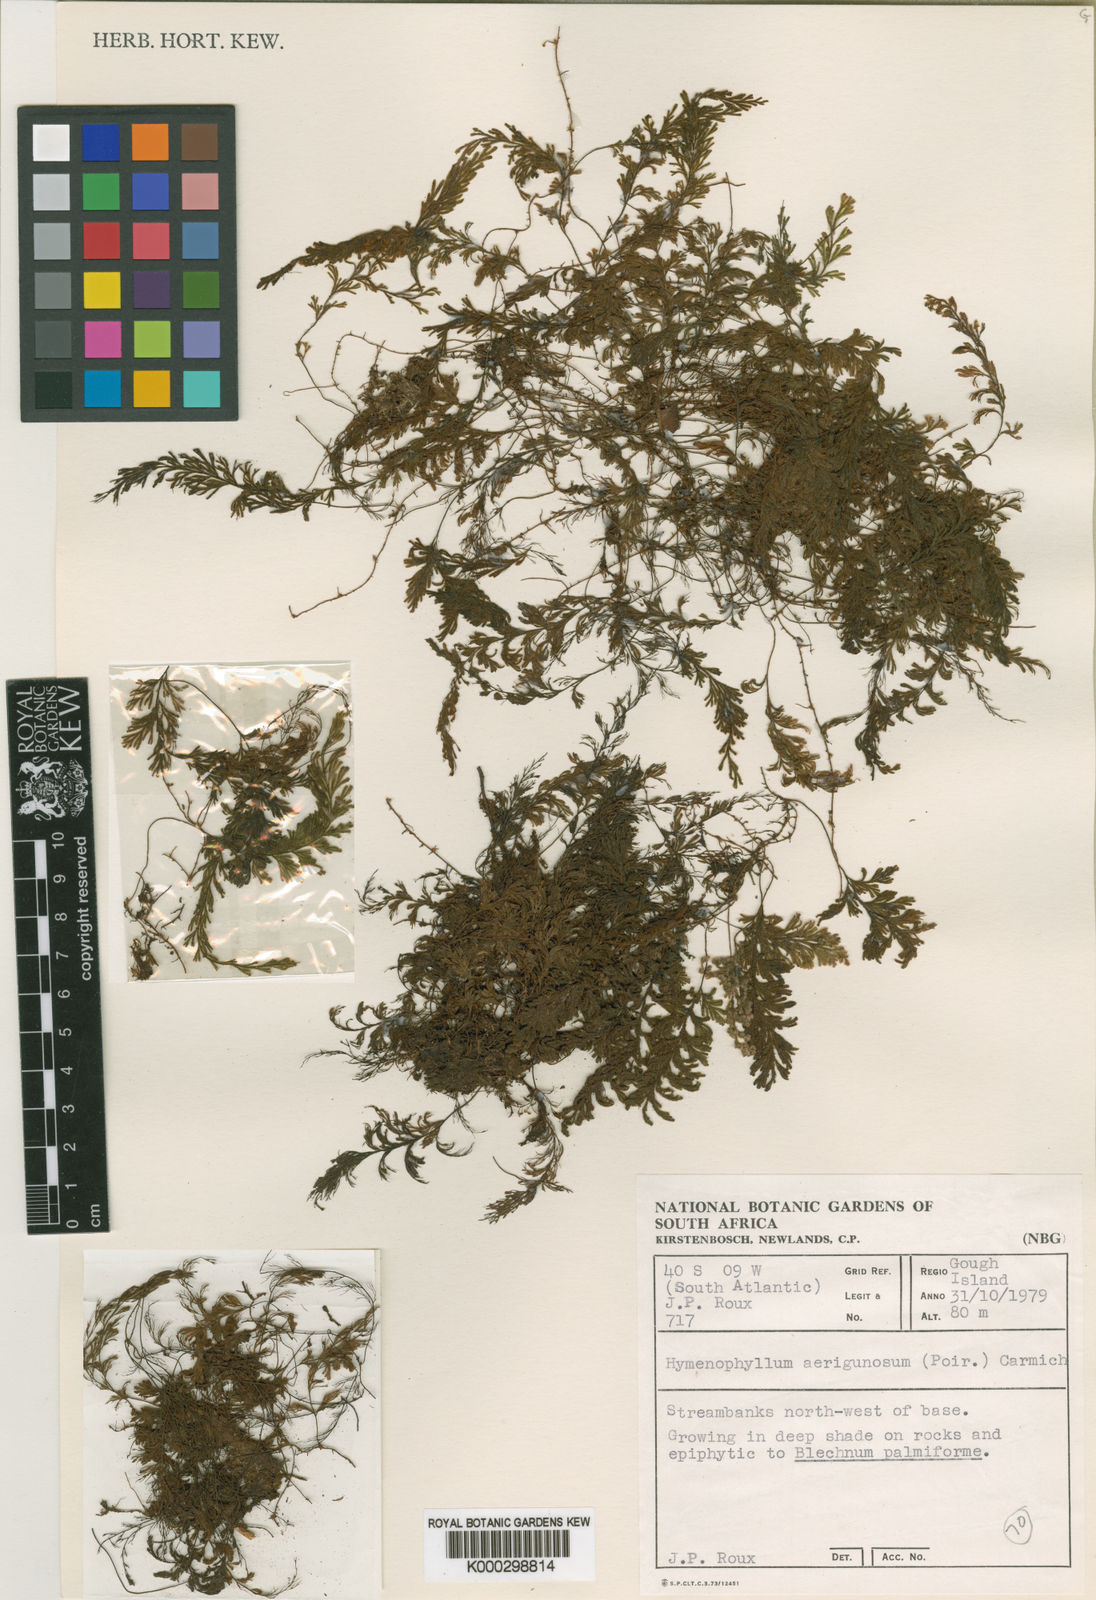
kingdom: Plantae
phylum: Tracheophyta
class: Polypodiopsida
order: Hymenophyllales
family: Hymenophyllaceae
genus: Hymenophyllum
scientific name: Hymenophyllum aeruginosum
